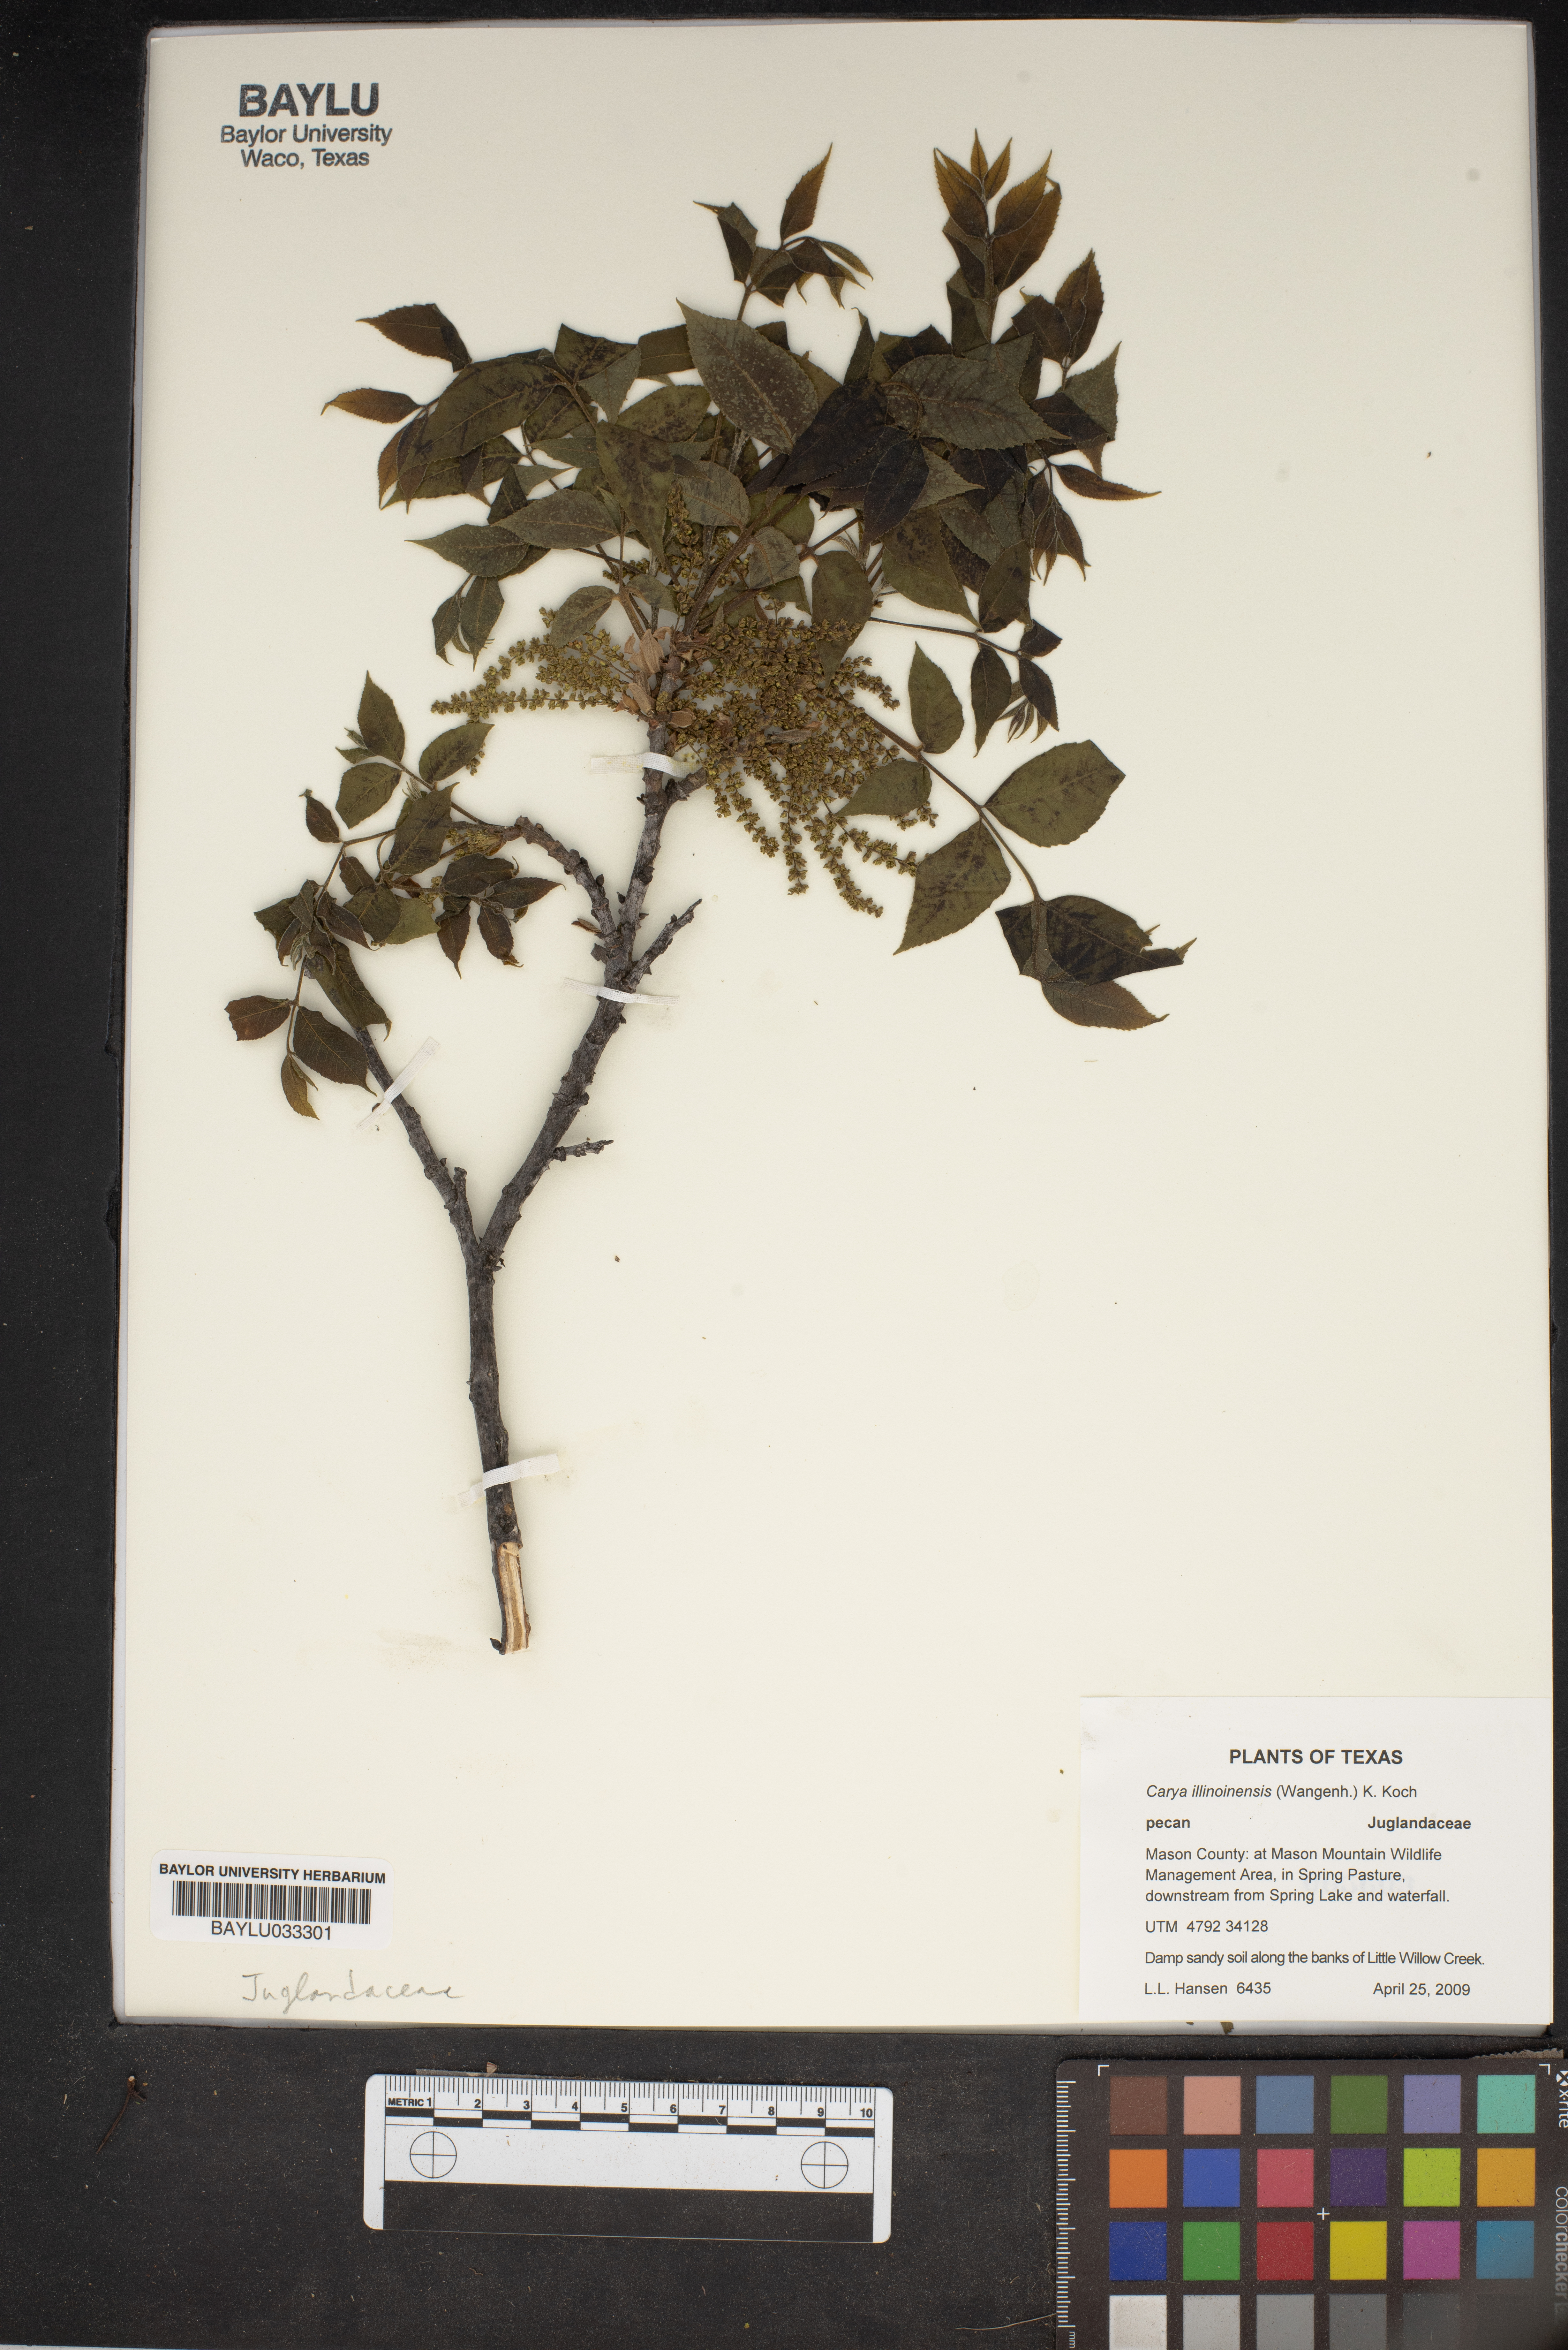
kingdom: Plantae
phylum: Tracheophyta
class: Magnoliopsida
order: Fagales
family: Juglandaceae
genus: Carya
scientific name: Carya illinoinensis
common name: Pecan
